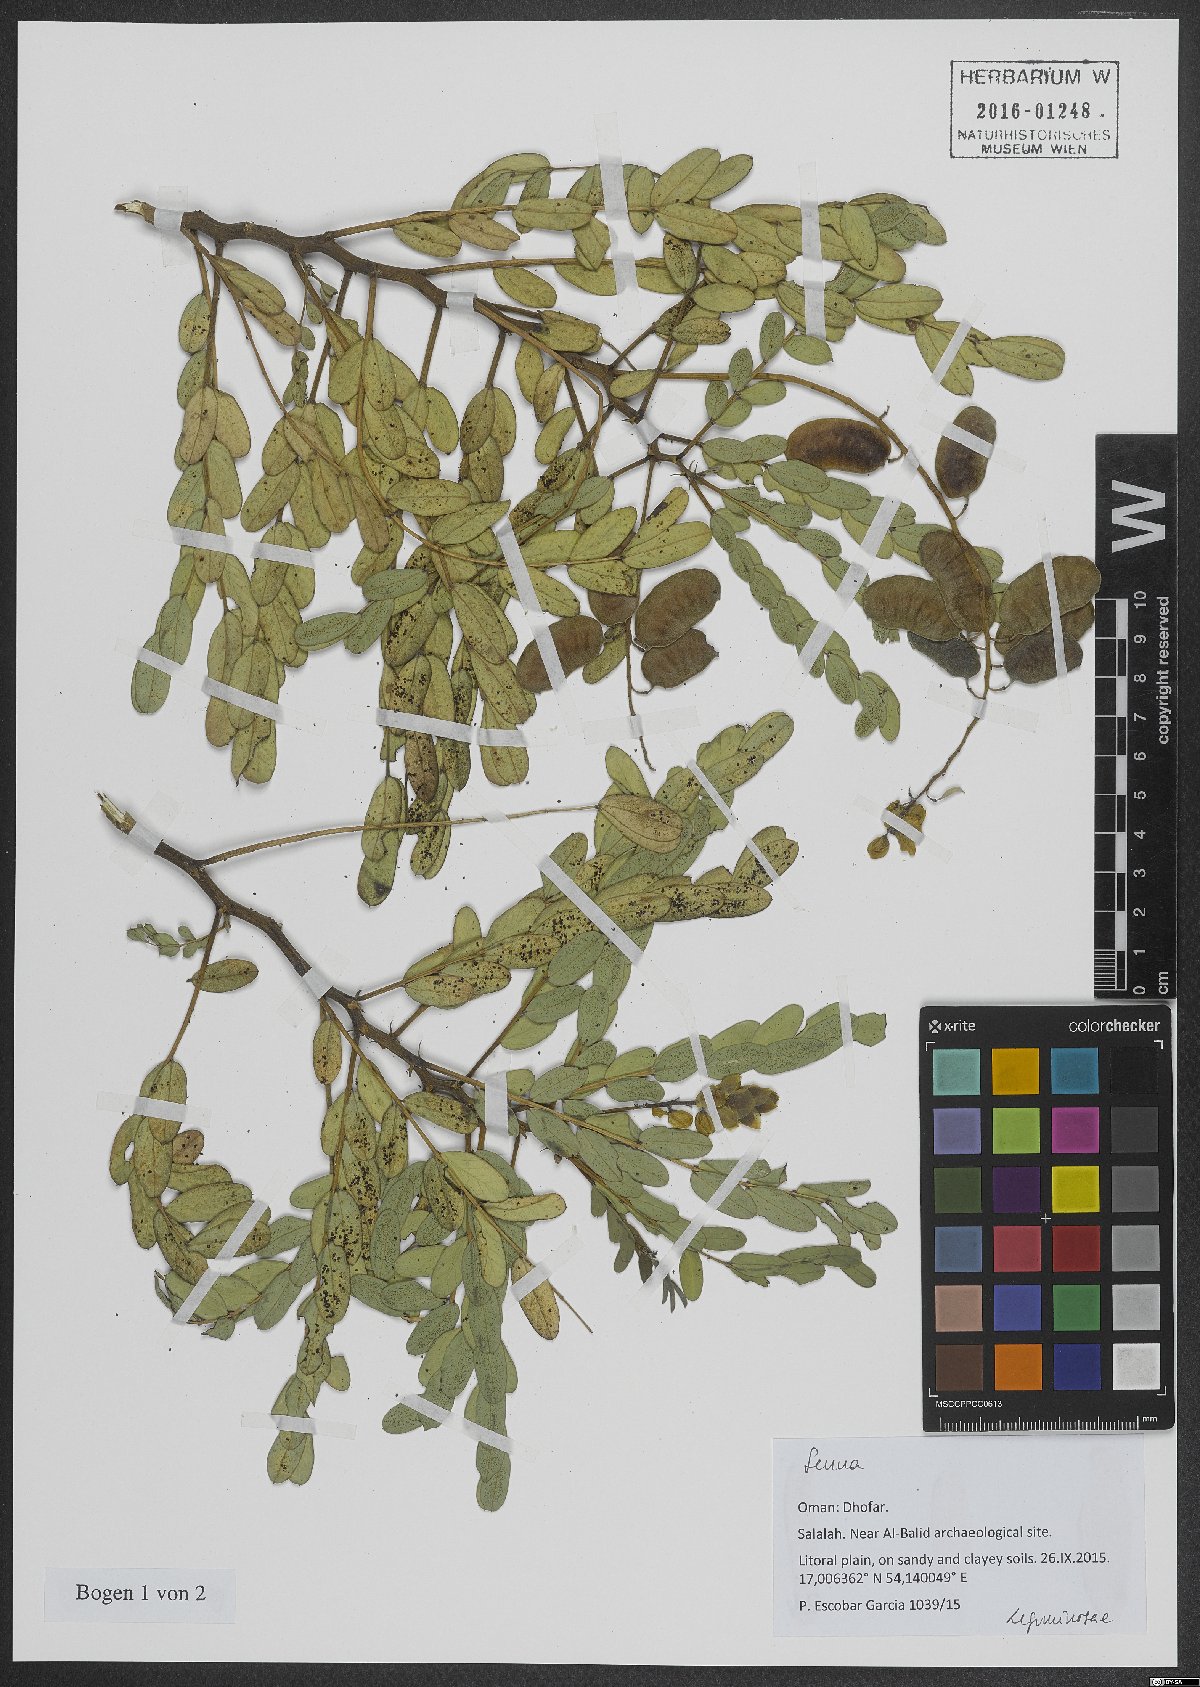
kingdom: Plantae
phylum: Tracheophyta
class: Magnoliopsida
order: Fabales
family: Fabaceae
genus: Senna
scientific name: Senna
